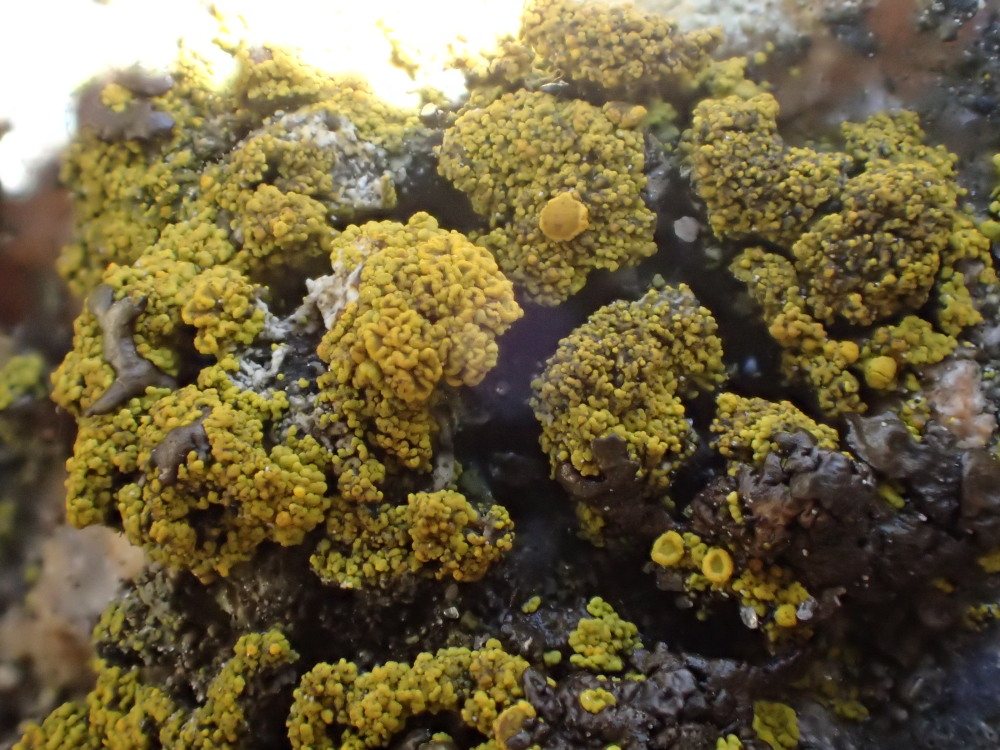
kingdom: Fungi
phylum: Ascomycota
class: Candelariomycetes
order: Candelariales
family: Candelariaceae
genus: Candelariella
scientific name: Candelariella vitellina
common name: almindelig æggeblommelav
